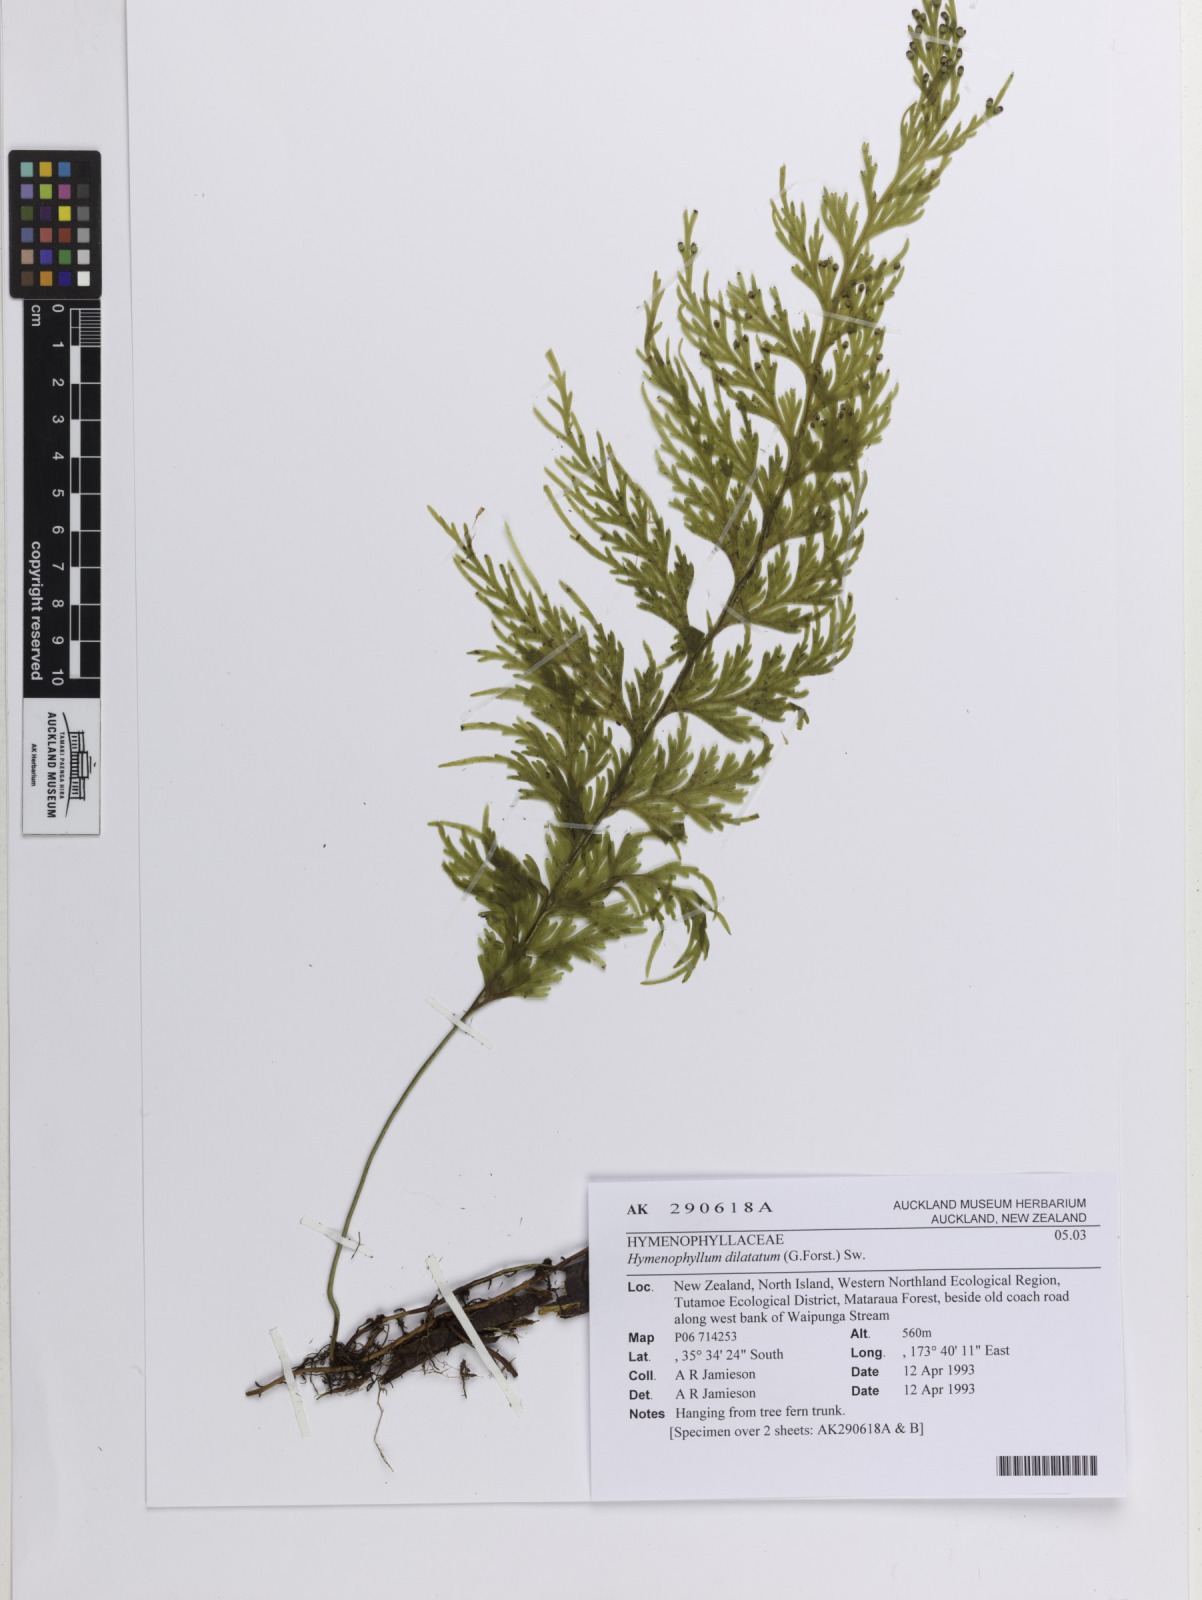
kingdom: Plantae
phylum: Tracheophyta
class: Polypodiopsida
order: Hymenophyllales
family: Hymenophyllaceae
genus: Hymenophyllum
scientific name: Hymenophyllum dilatatum
